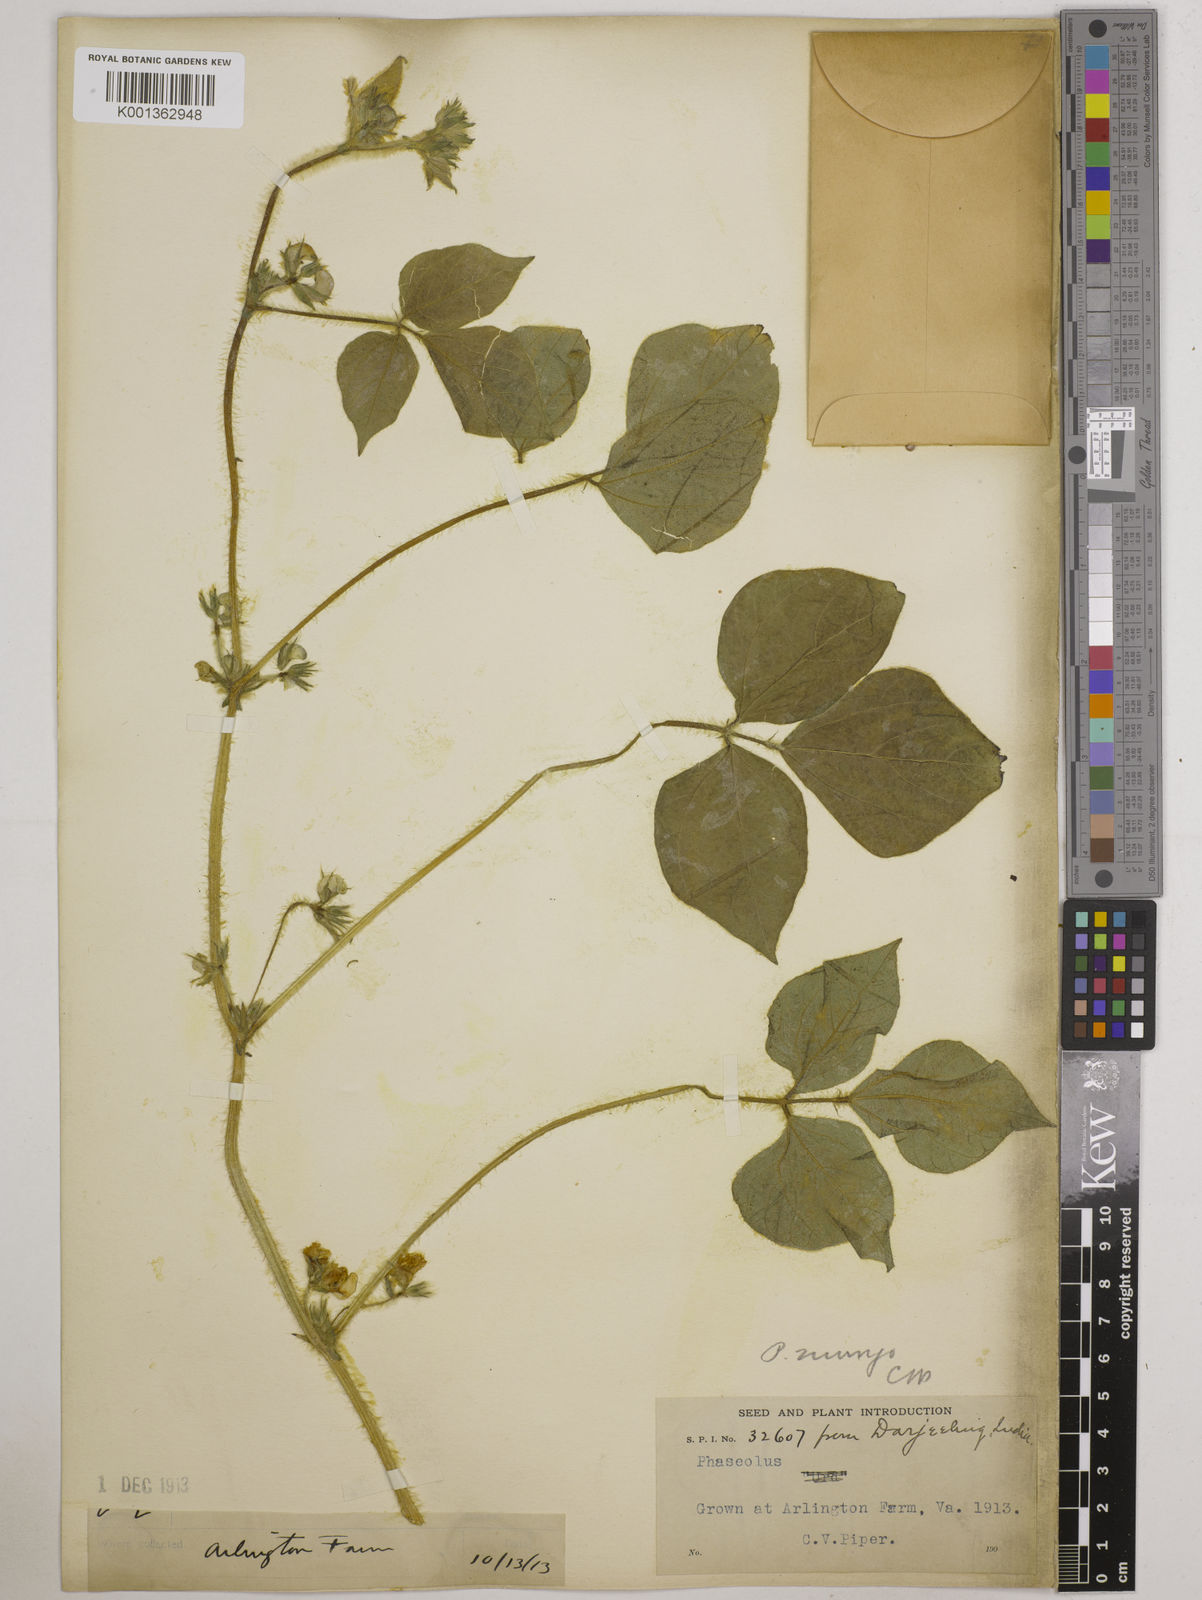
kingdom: Plantae
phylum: Tracheophyta
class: Magnoliopsida
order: Fabales
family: Fabaceae
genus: Vigna
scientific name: Vigna mungo
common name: Black gram
